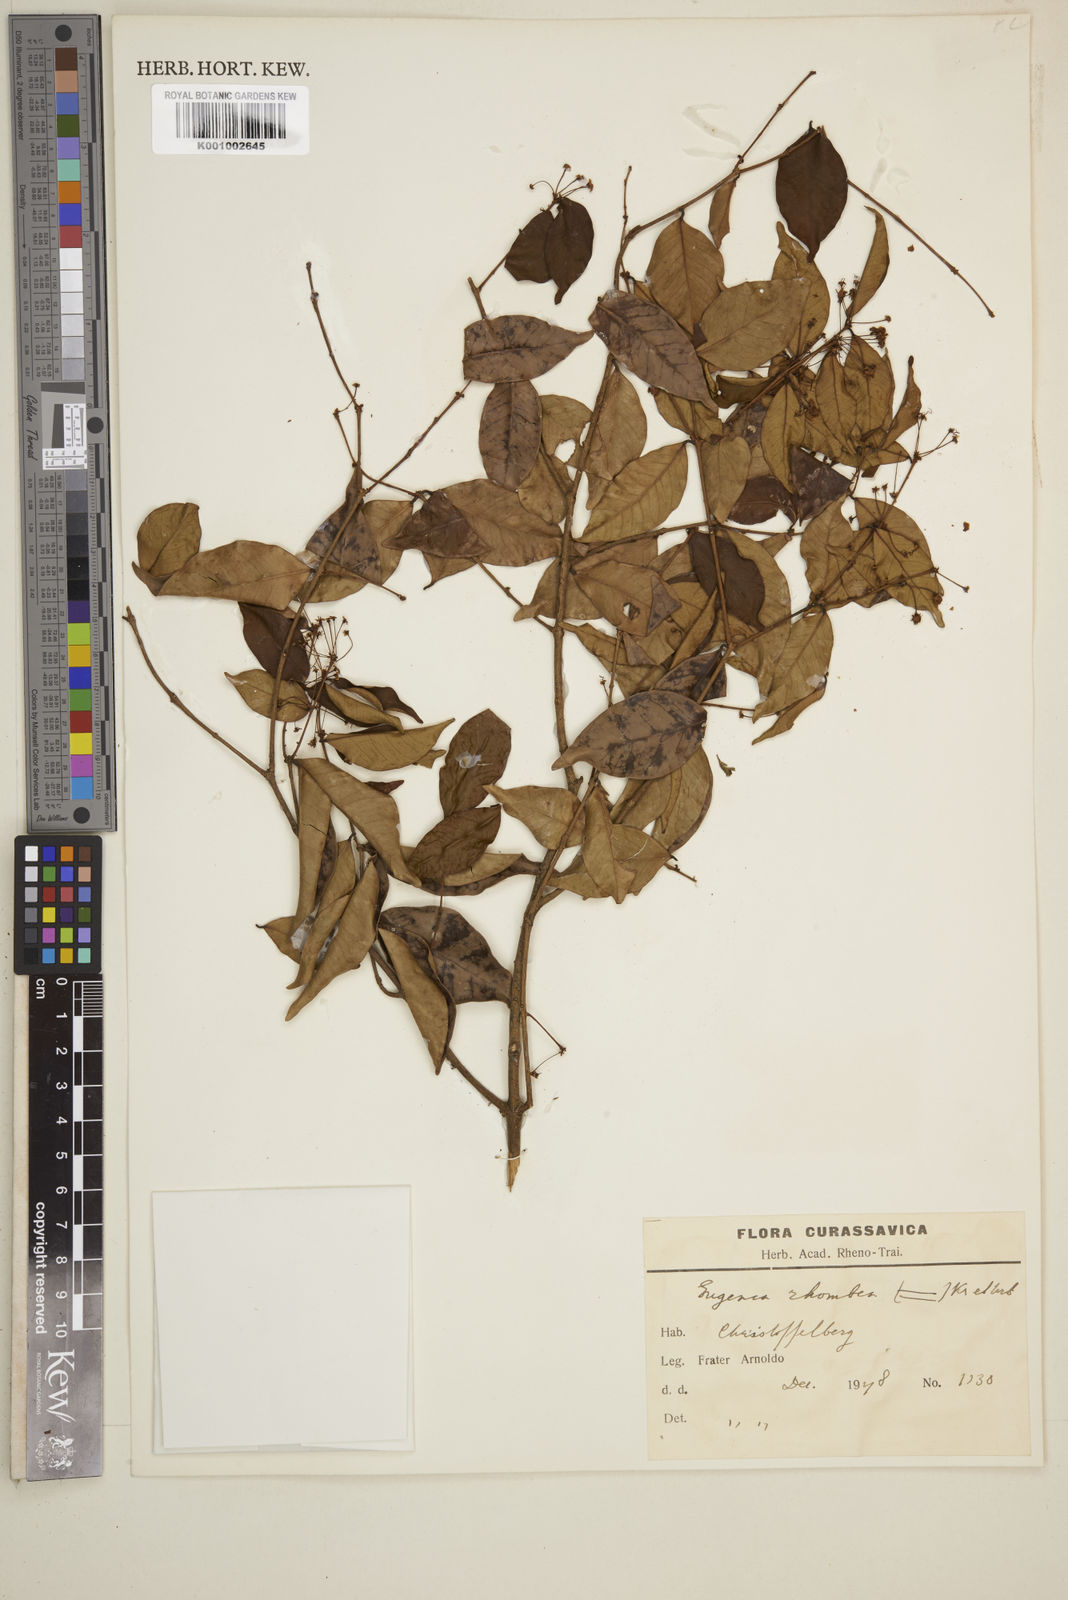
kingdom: Plantae
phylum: Tracheophyta
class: Magnoliopsida
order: Myrtales
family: Myrtaceae
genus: Eugenia
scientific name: Eugenia rhombea
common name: Pigeon berry
